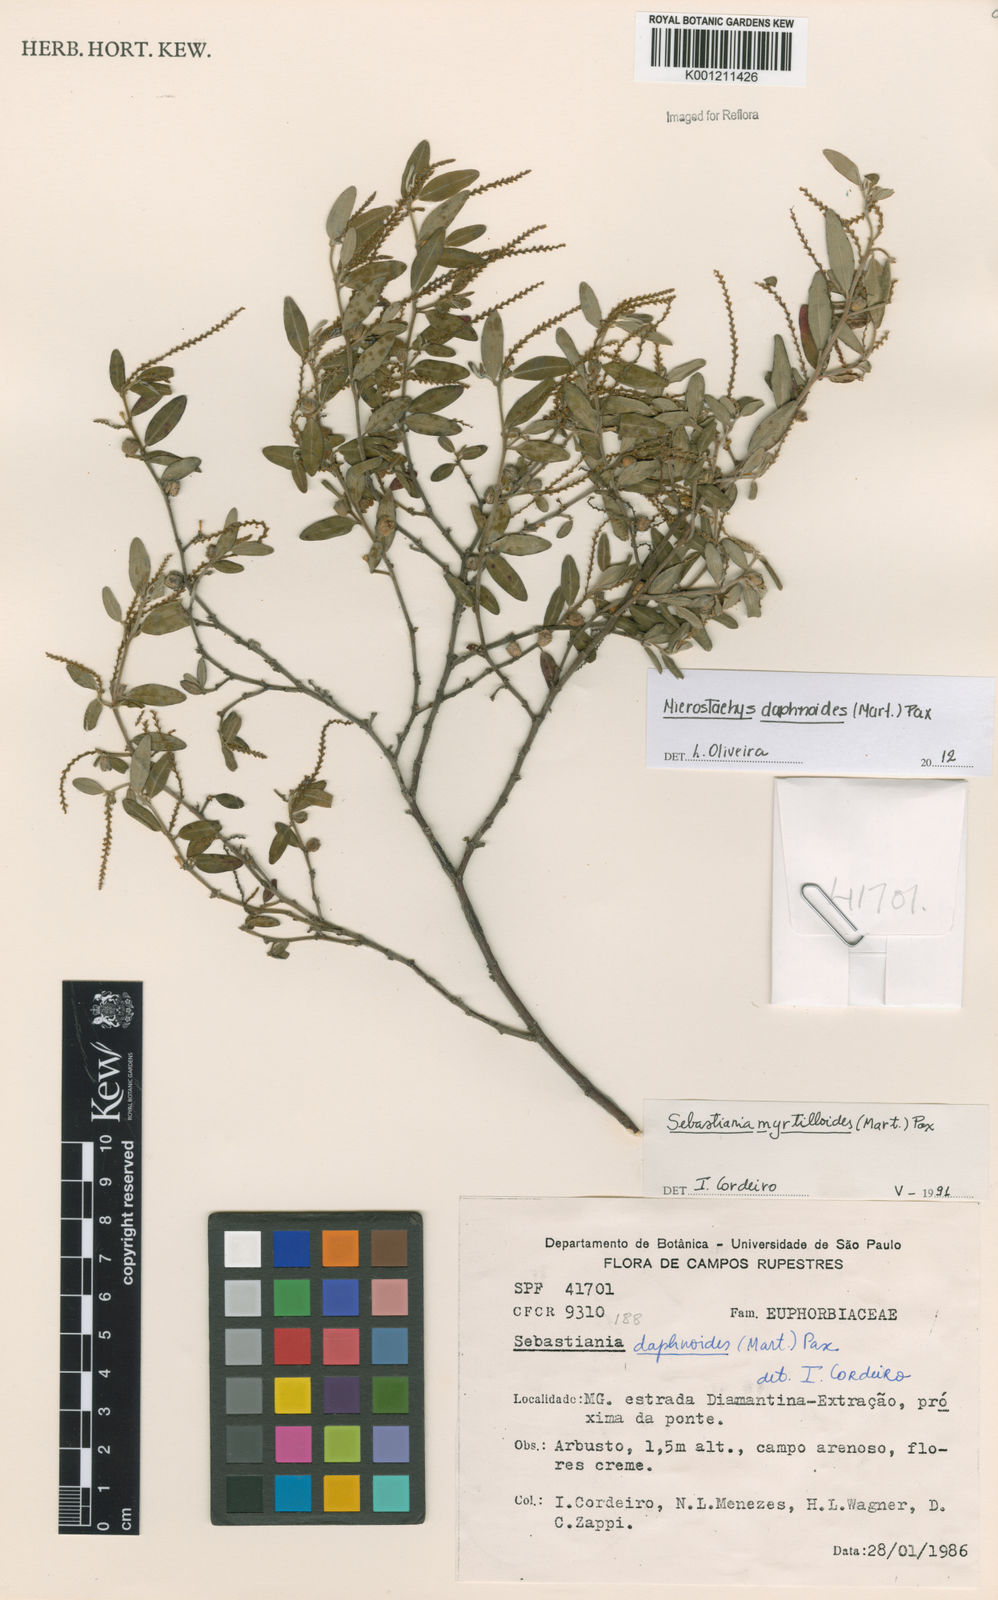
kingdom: Plantae
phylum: Tracheophyta
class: Magnoliopsida
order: Malpighiales
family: Euphorbiaceae
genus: Microstachys
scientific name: Microstachys
